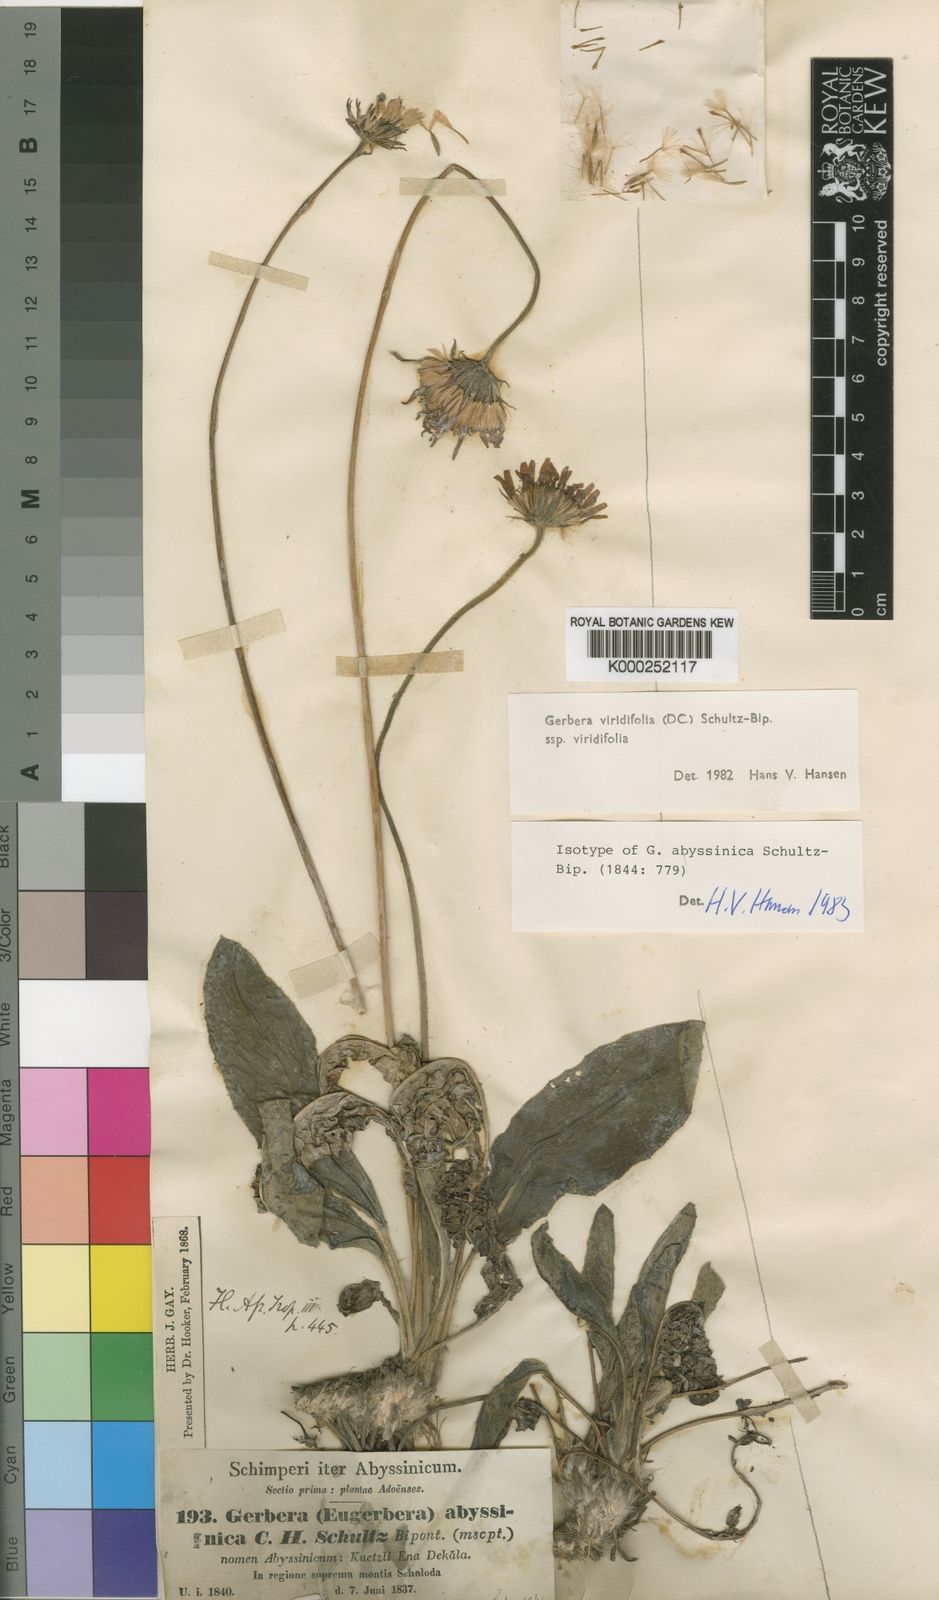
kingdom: Plantae
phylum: Tracheophyta
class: Magnoliopsida
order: Asterales
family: Asteraceae
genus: Gerbera
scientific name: Gerbera viridifolia
